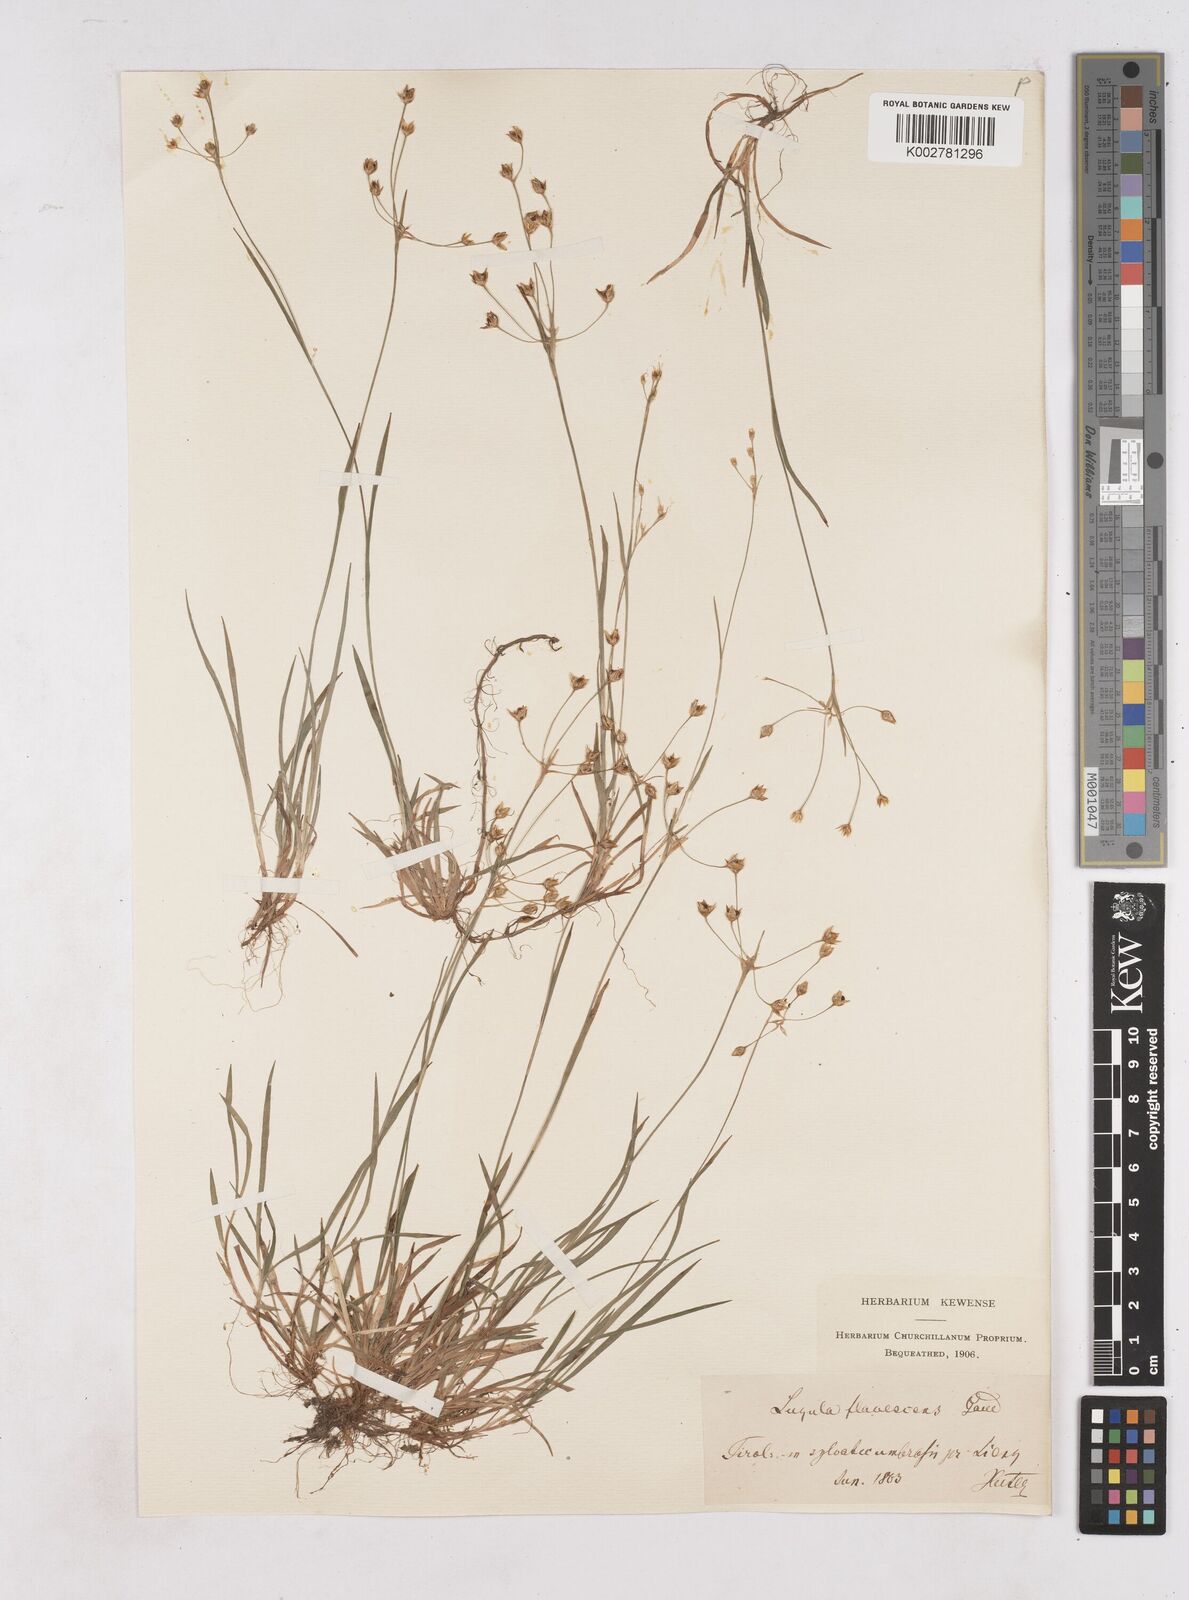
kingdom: Plantae
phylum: Tracheophyta
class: Liliopsida
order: Poales
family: Juncaceae
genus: Luzula
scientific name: Luzula luzulina
